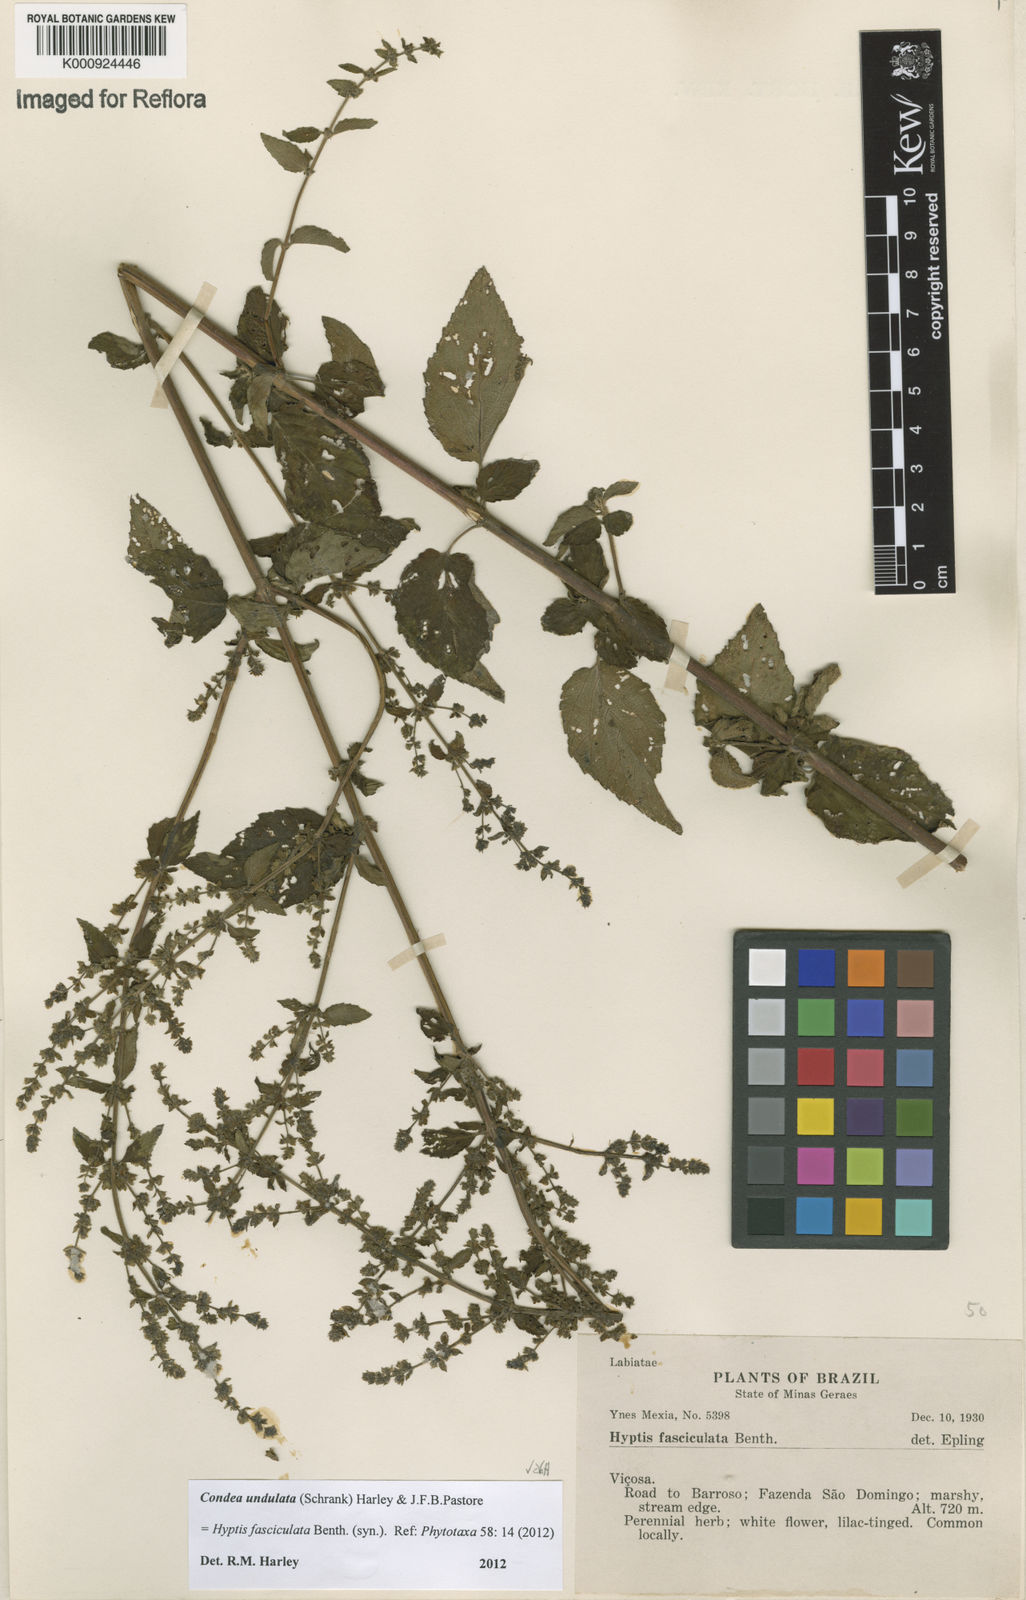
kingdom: Plantae
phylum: Tracheophyta
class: Magnoliopsida
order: Lamiales
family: Lamiaceae
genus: Condea
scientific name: Condea undulata
